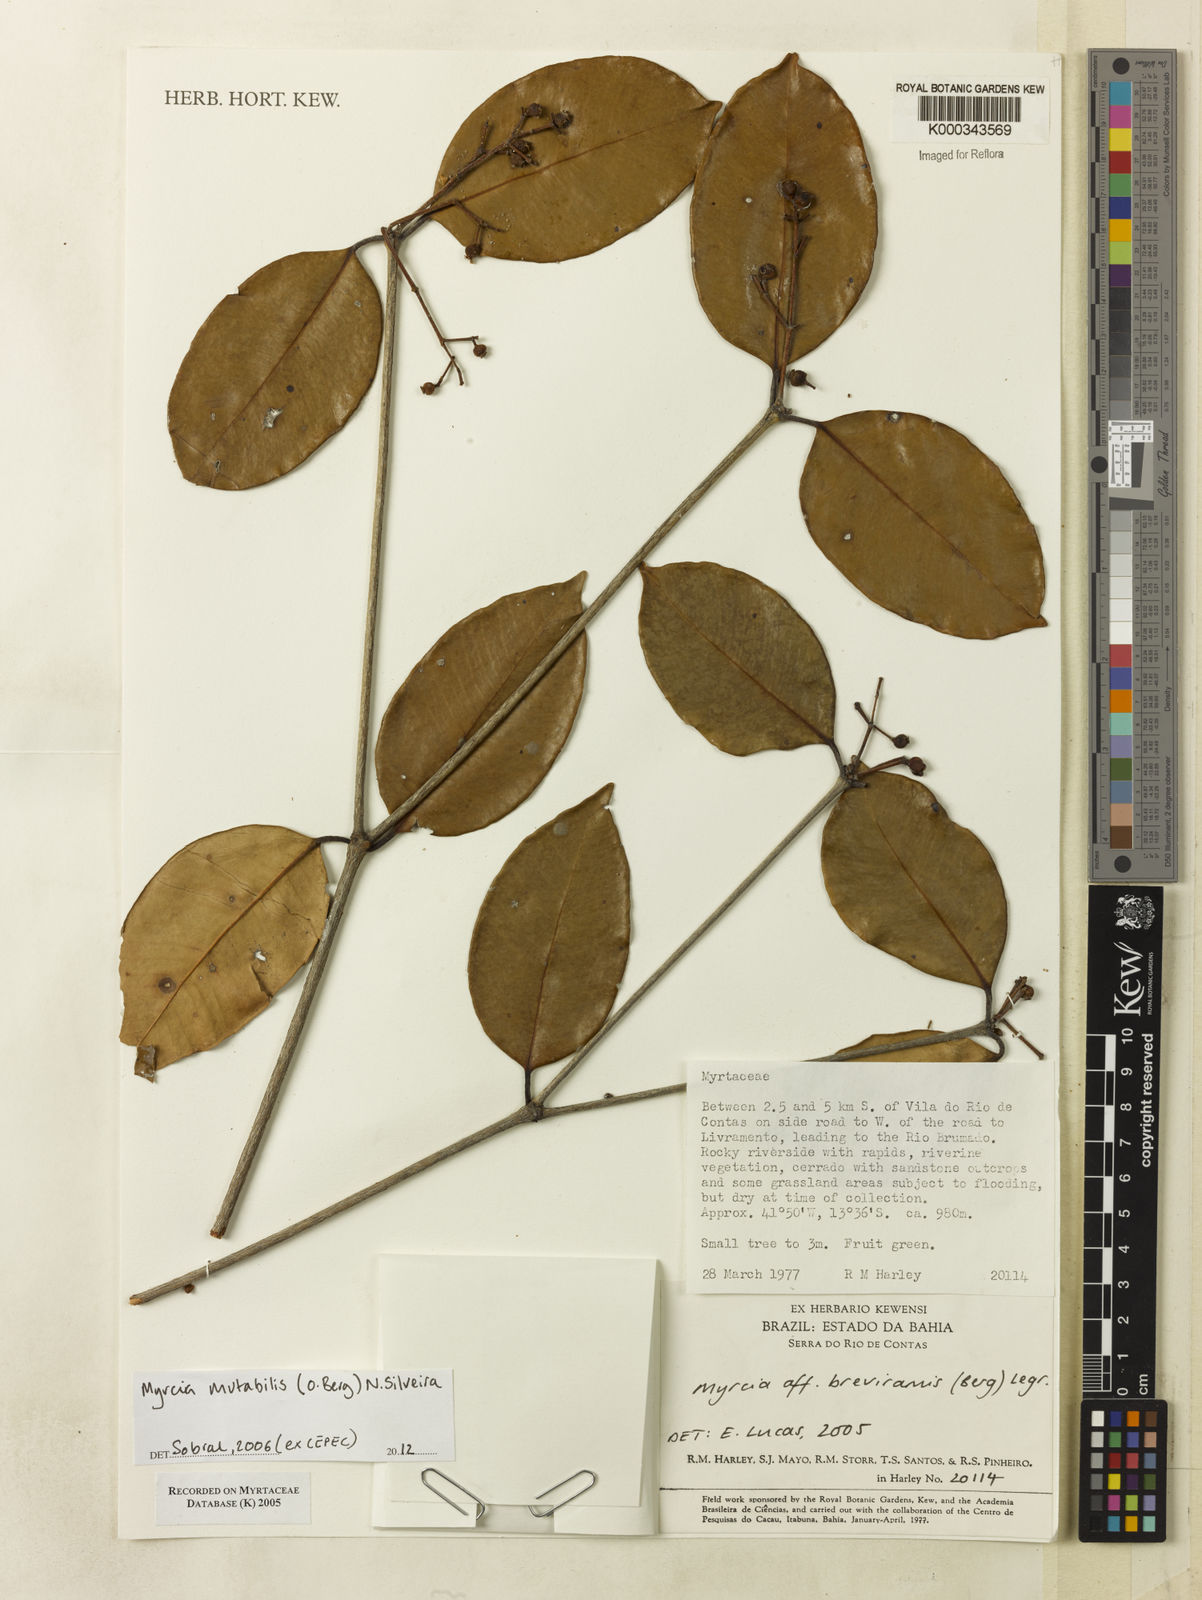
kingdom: Plantae
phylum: Tracheophyta
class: Magnoliopsida
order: Myrtales
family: Myrtaceae
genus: Myrcia
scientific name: Myrcia mutabilis
